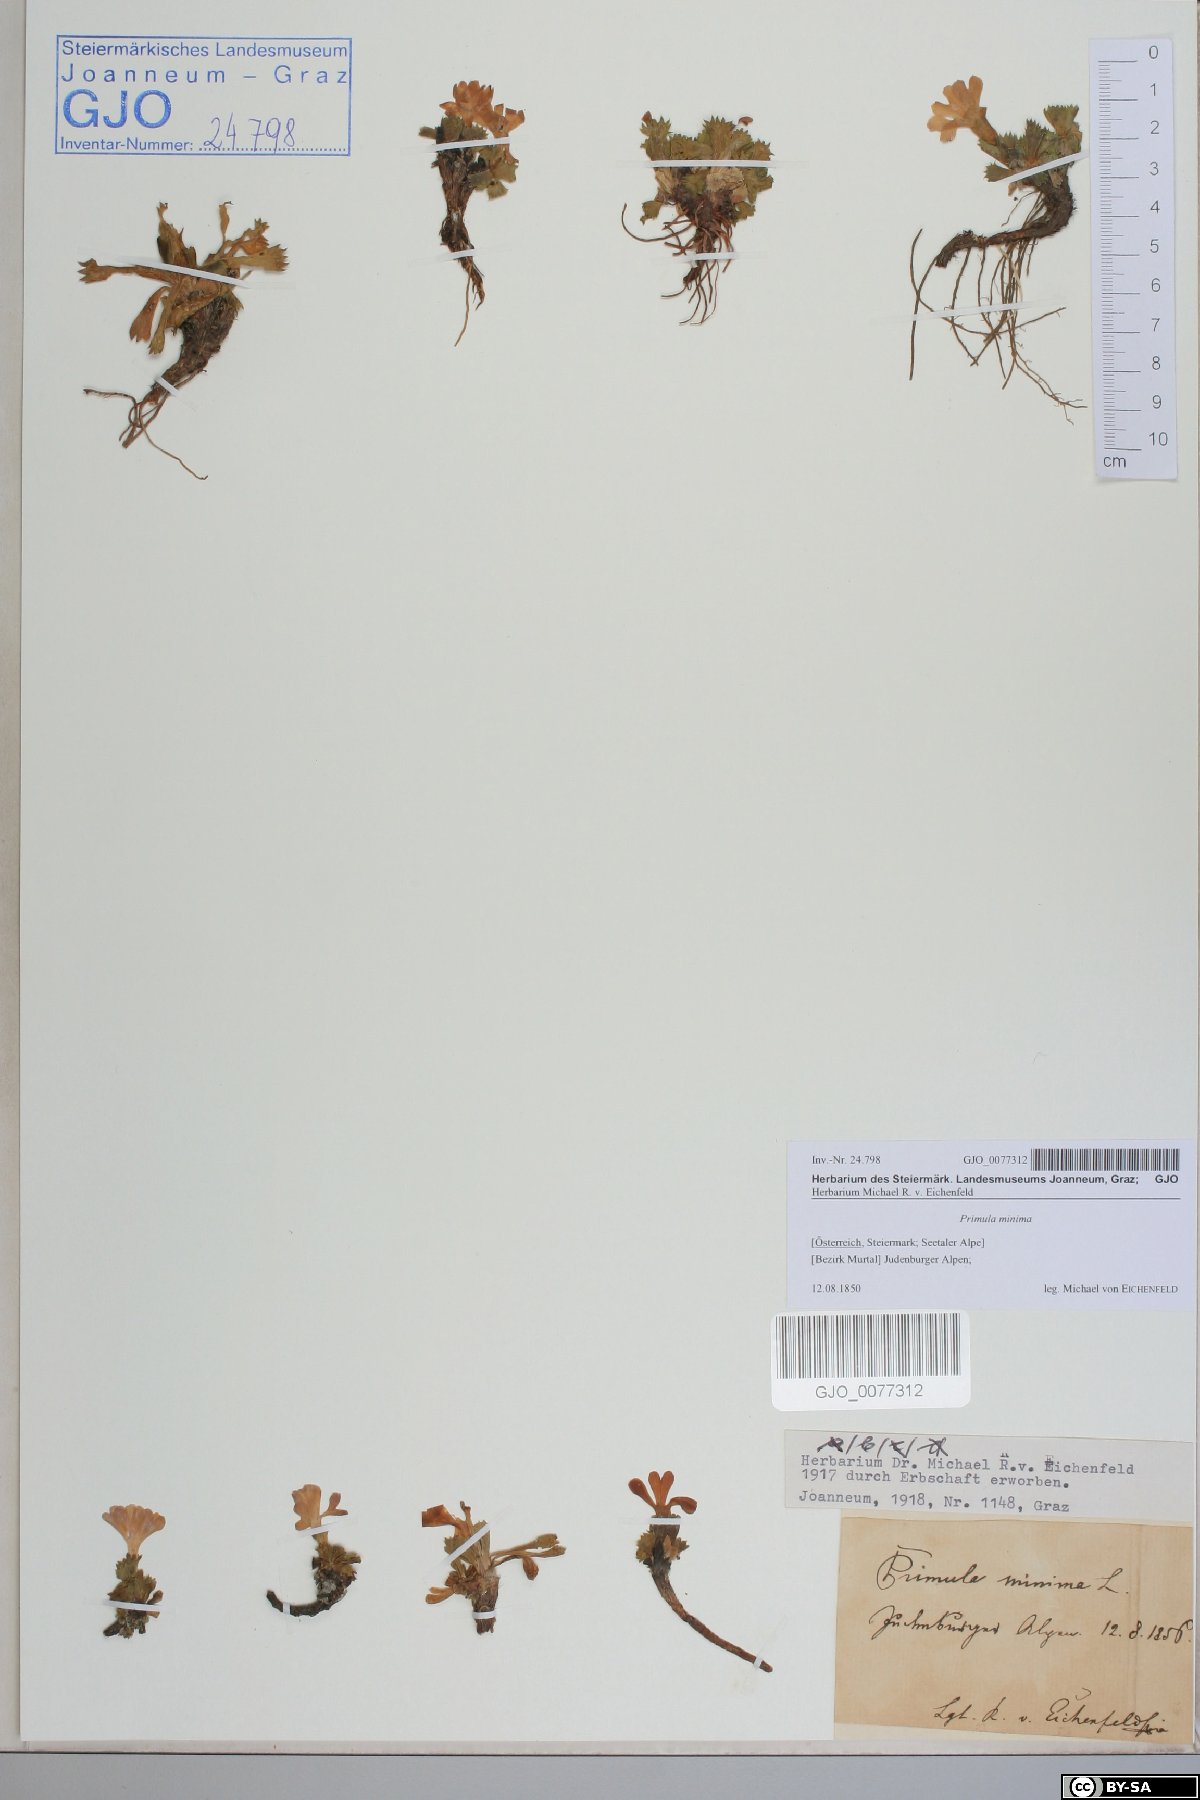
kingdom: Plantae
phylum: Tracheophyta
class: Magnoliopsida
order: Ericales
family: Primulaceae
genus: Primula
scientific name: Primula minima
